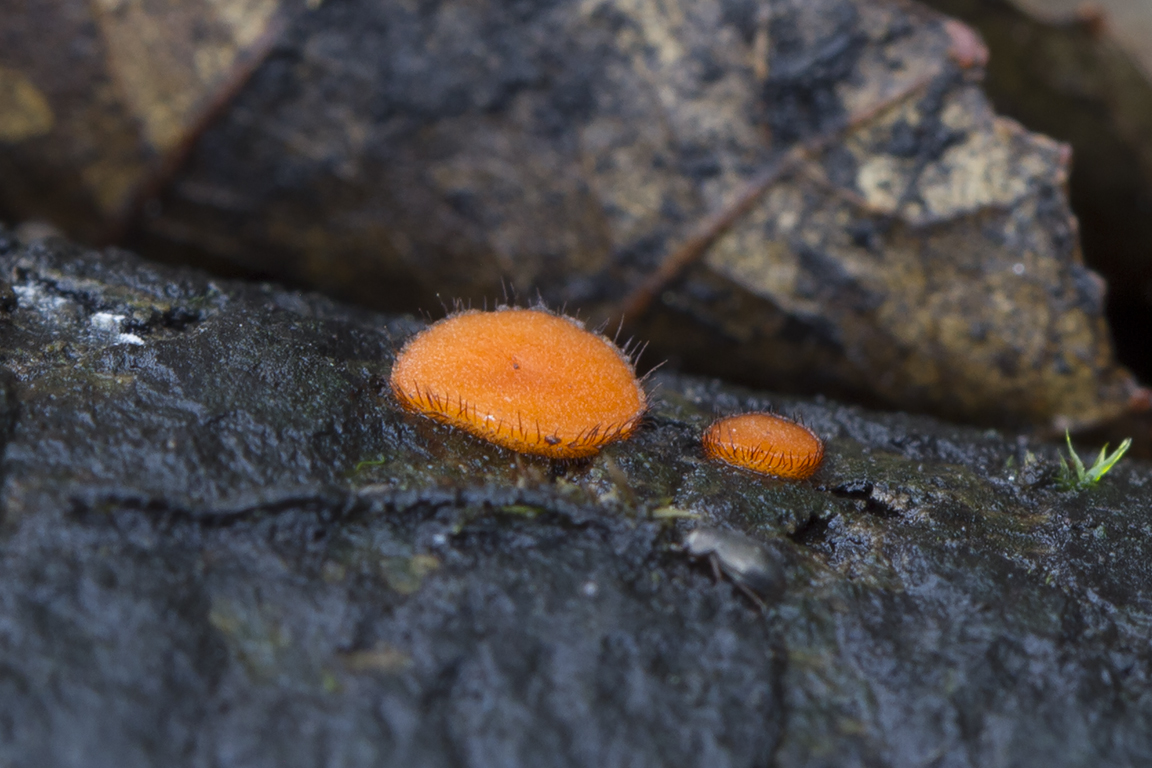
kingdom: Fungi
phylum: Ascomycota
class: Pezizomycetes
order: Pezizales
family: Pyronemataceae
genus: Scutellinia
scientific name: Scutellinia scutellata
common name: frynset skjoldbæger
